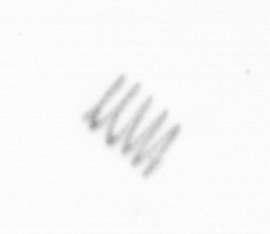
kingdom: Chromista
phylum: Ochrophyta
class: Bacillariophyceae
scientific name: Bacillariophyceae
